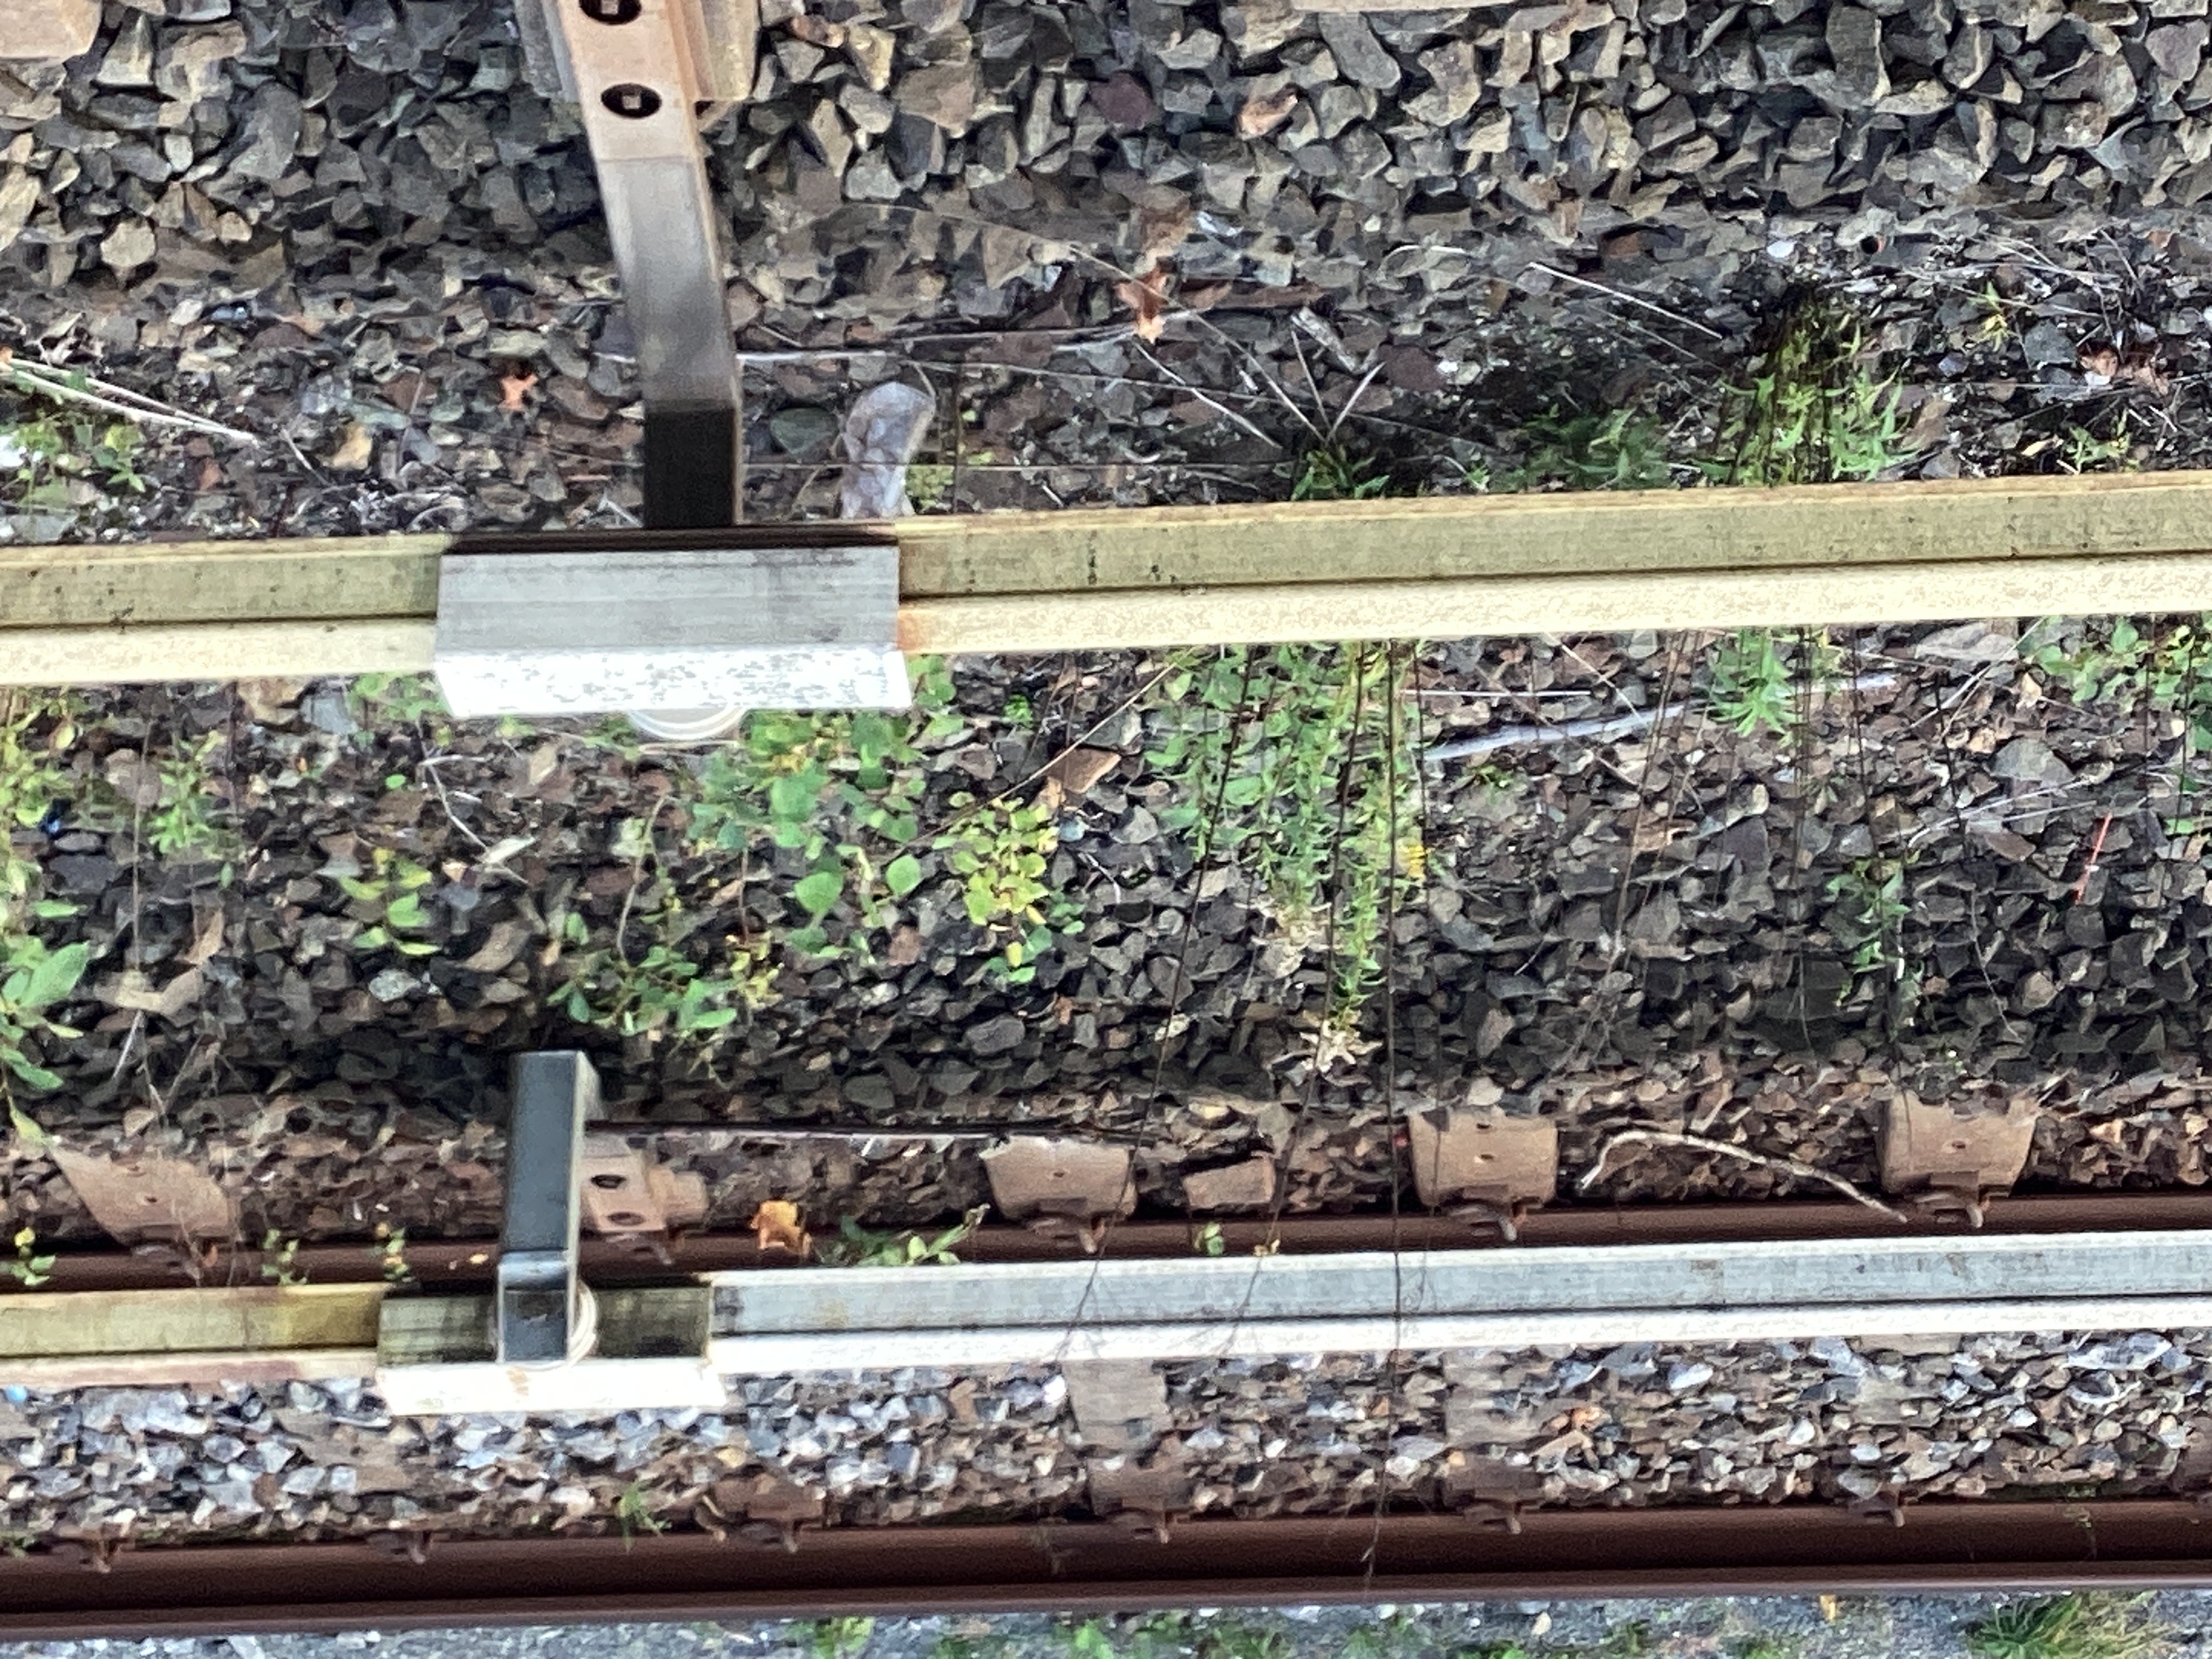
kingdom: Plantae
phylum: Tracheophyta
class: Magnoliopsida
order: Asterales
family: Asteraceae
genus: Solidago
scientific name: Solidago canadensis
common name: kanadagullris
